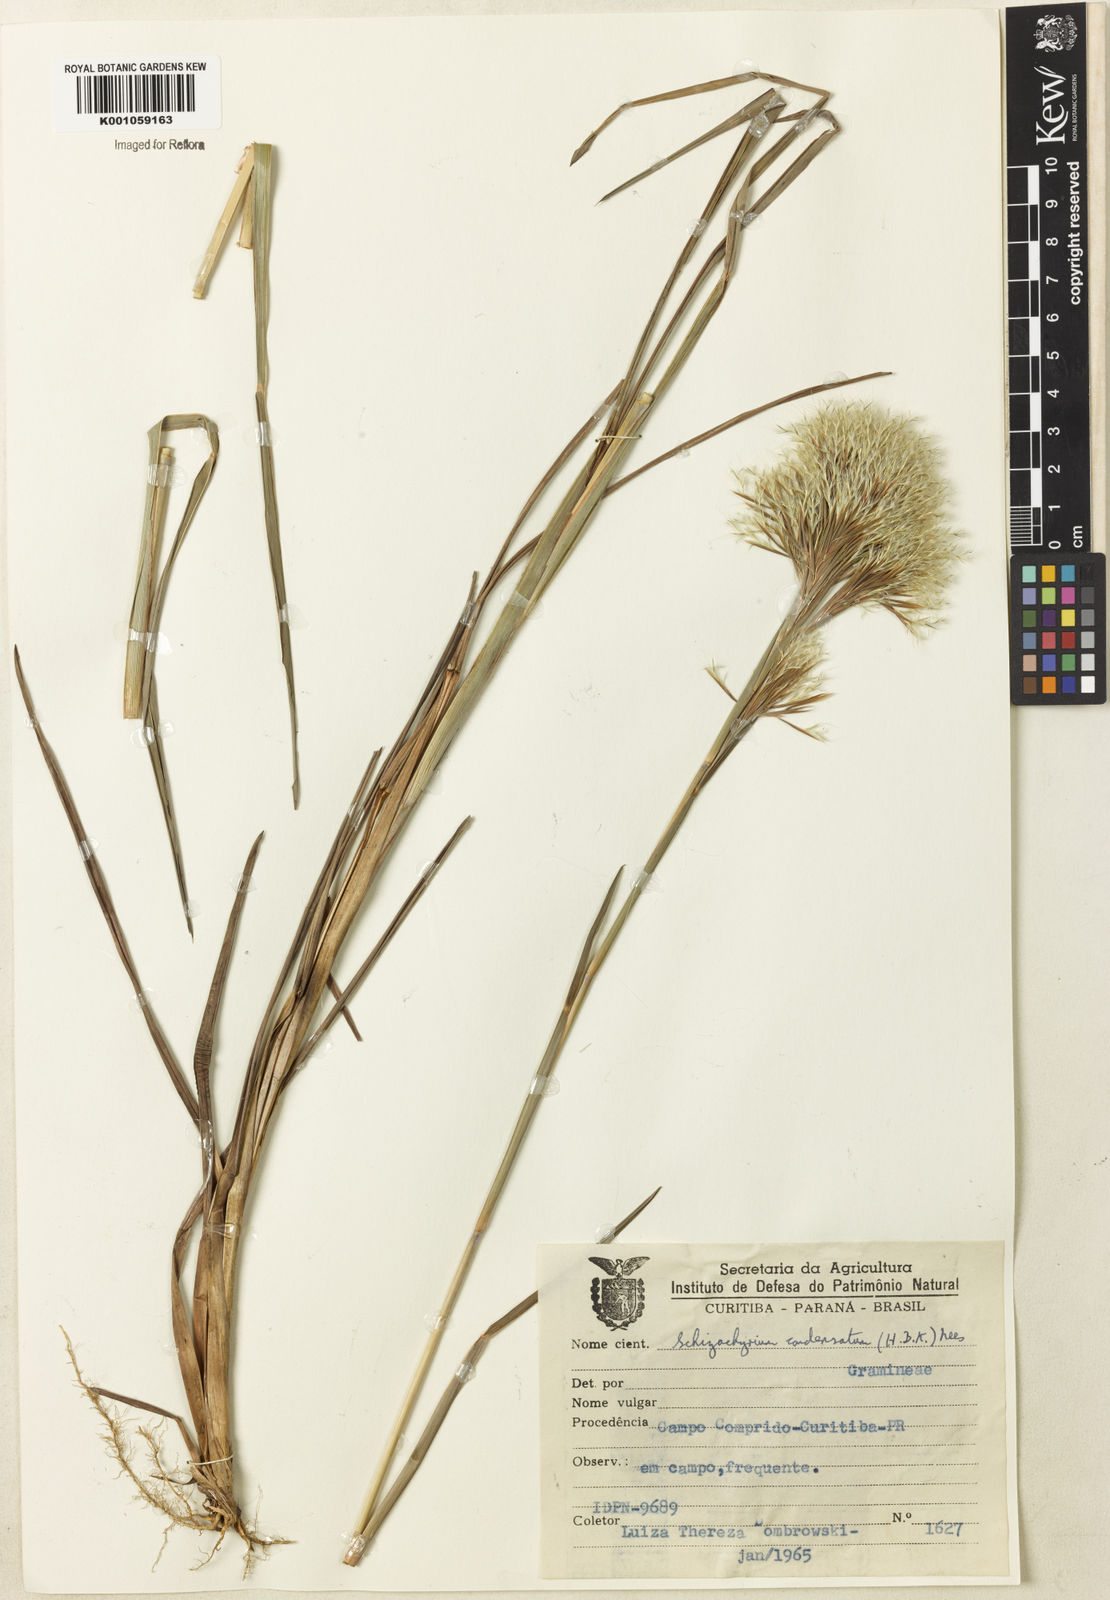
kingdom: Plantae
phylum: Tracheophyta
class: Liliopsida
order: Poales
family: Poaceae
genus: Schizachyrium
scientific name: Schizachyrium condensatum
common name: Bush beardgrass
